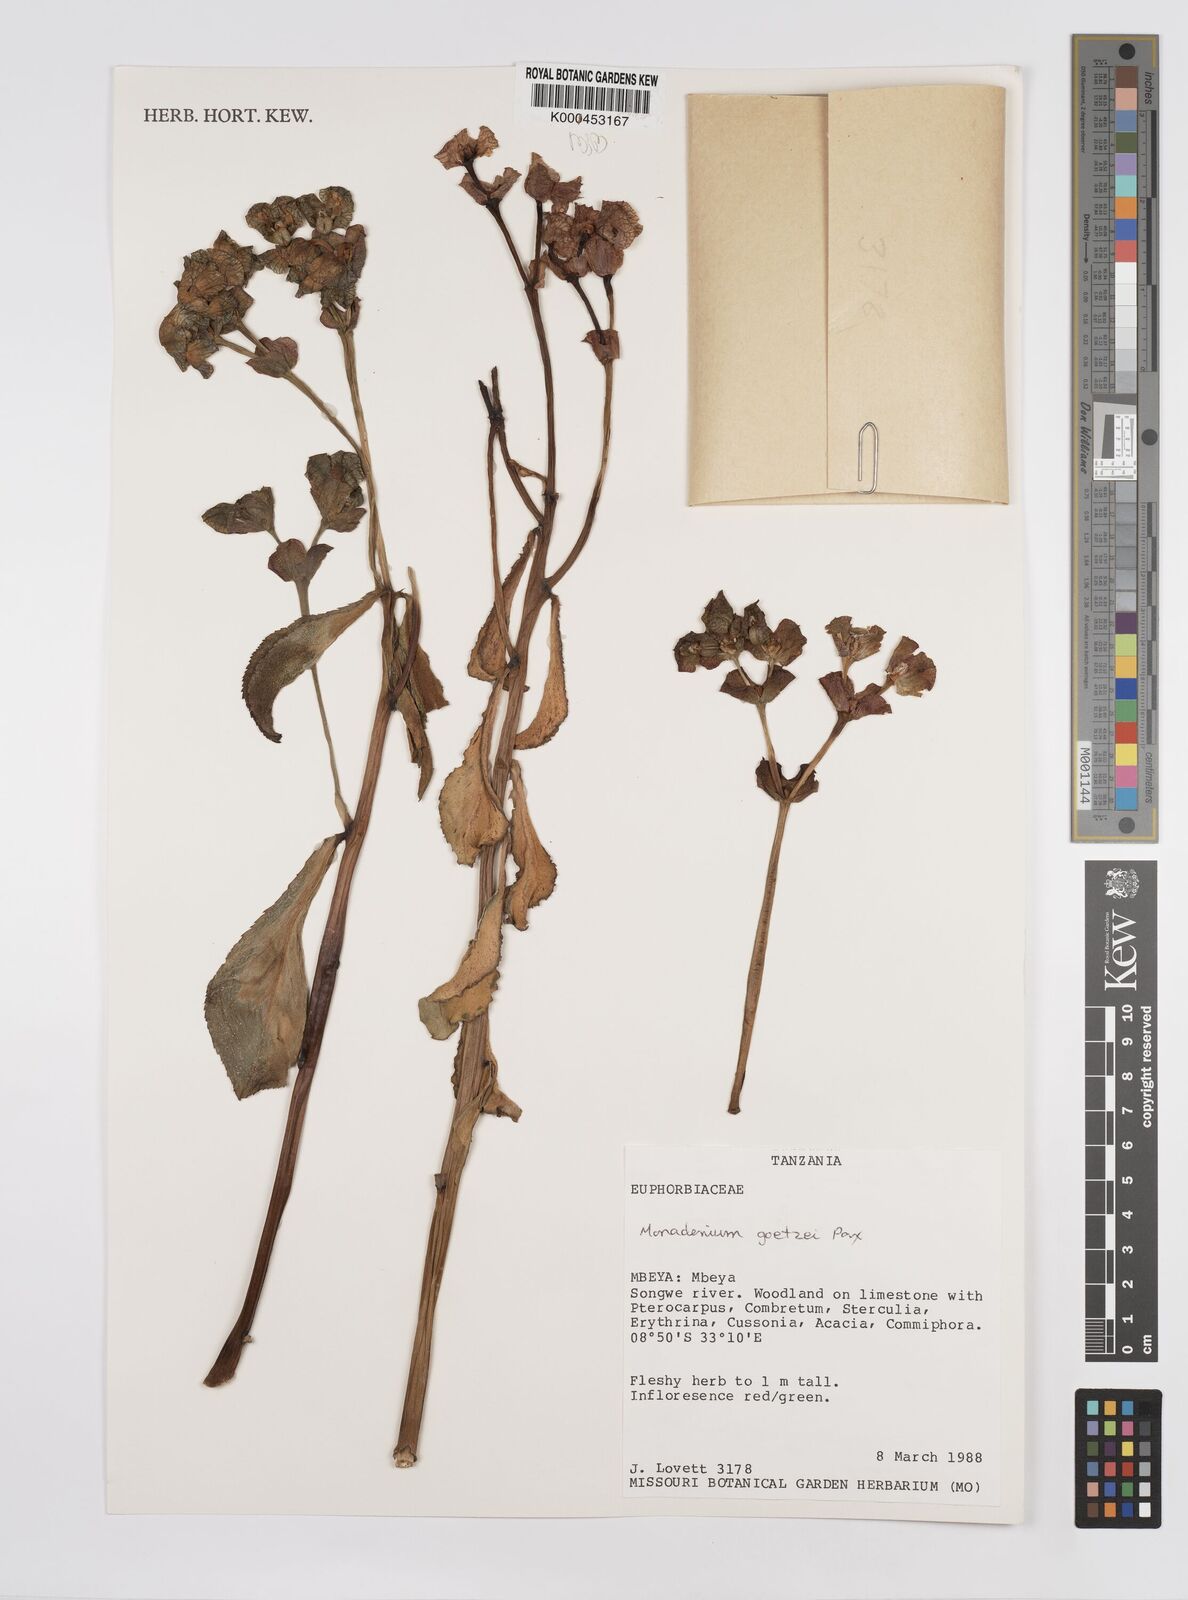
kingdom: Plantae
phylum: Tracheophyta
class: Magnoliopsida
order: Malpighiales
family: Euphorbiaceae
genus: Euphorbia
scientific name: Euphorbia neogoetzei
